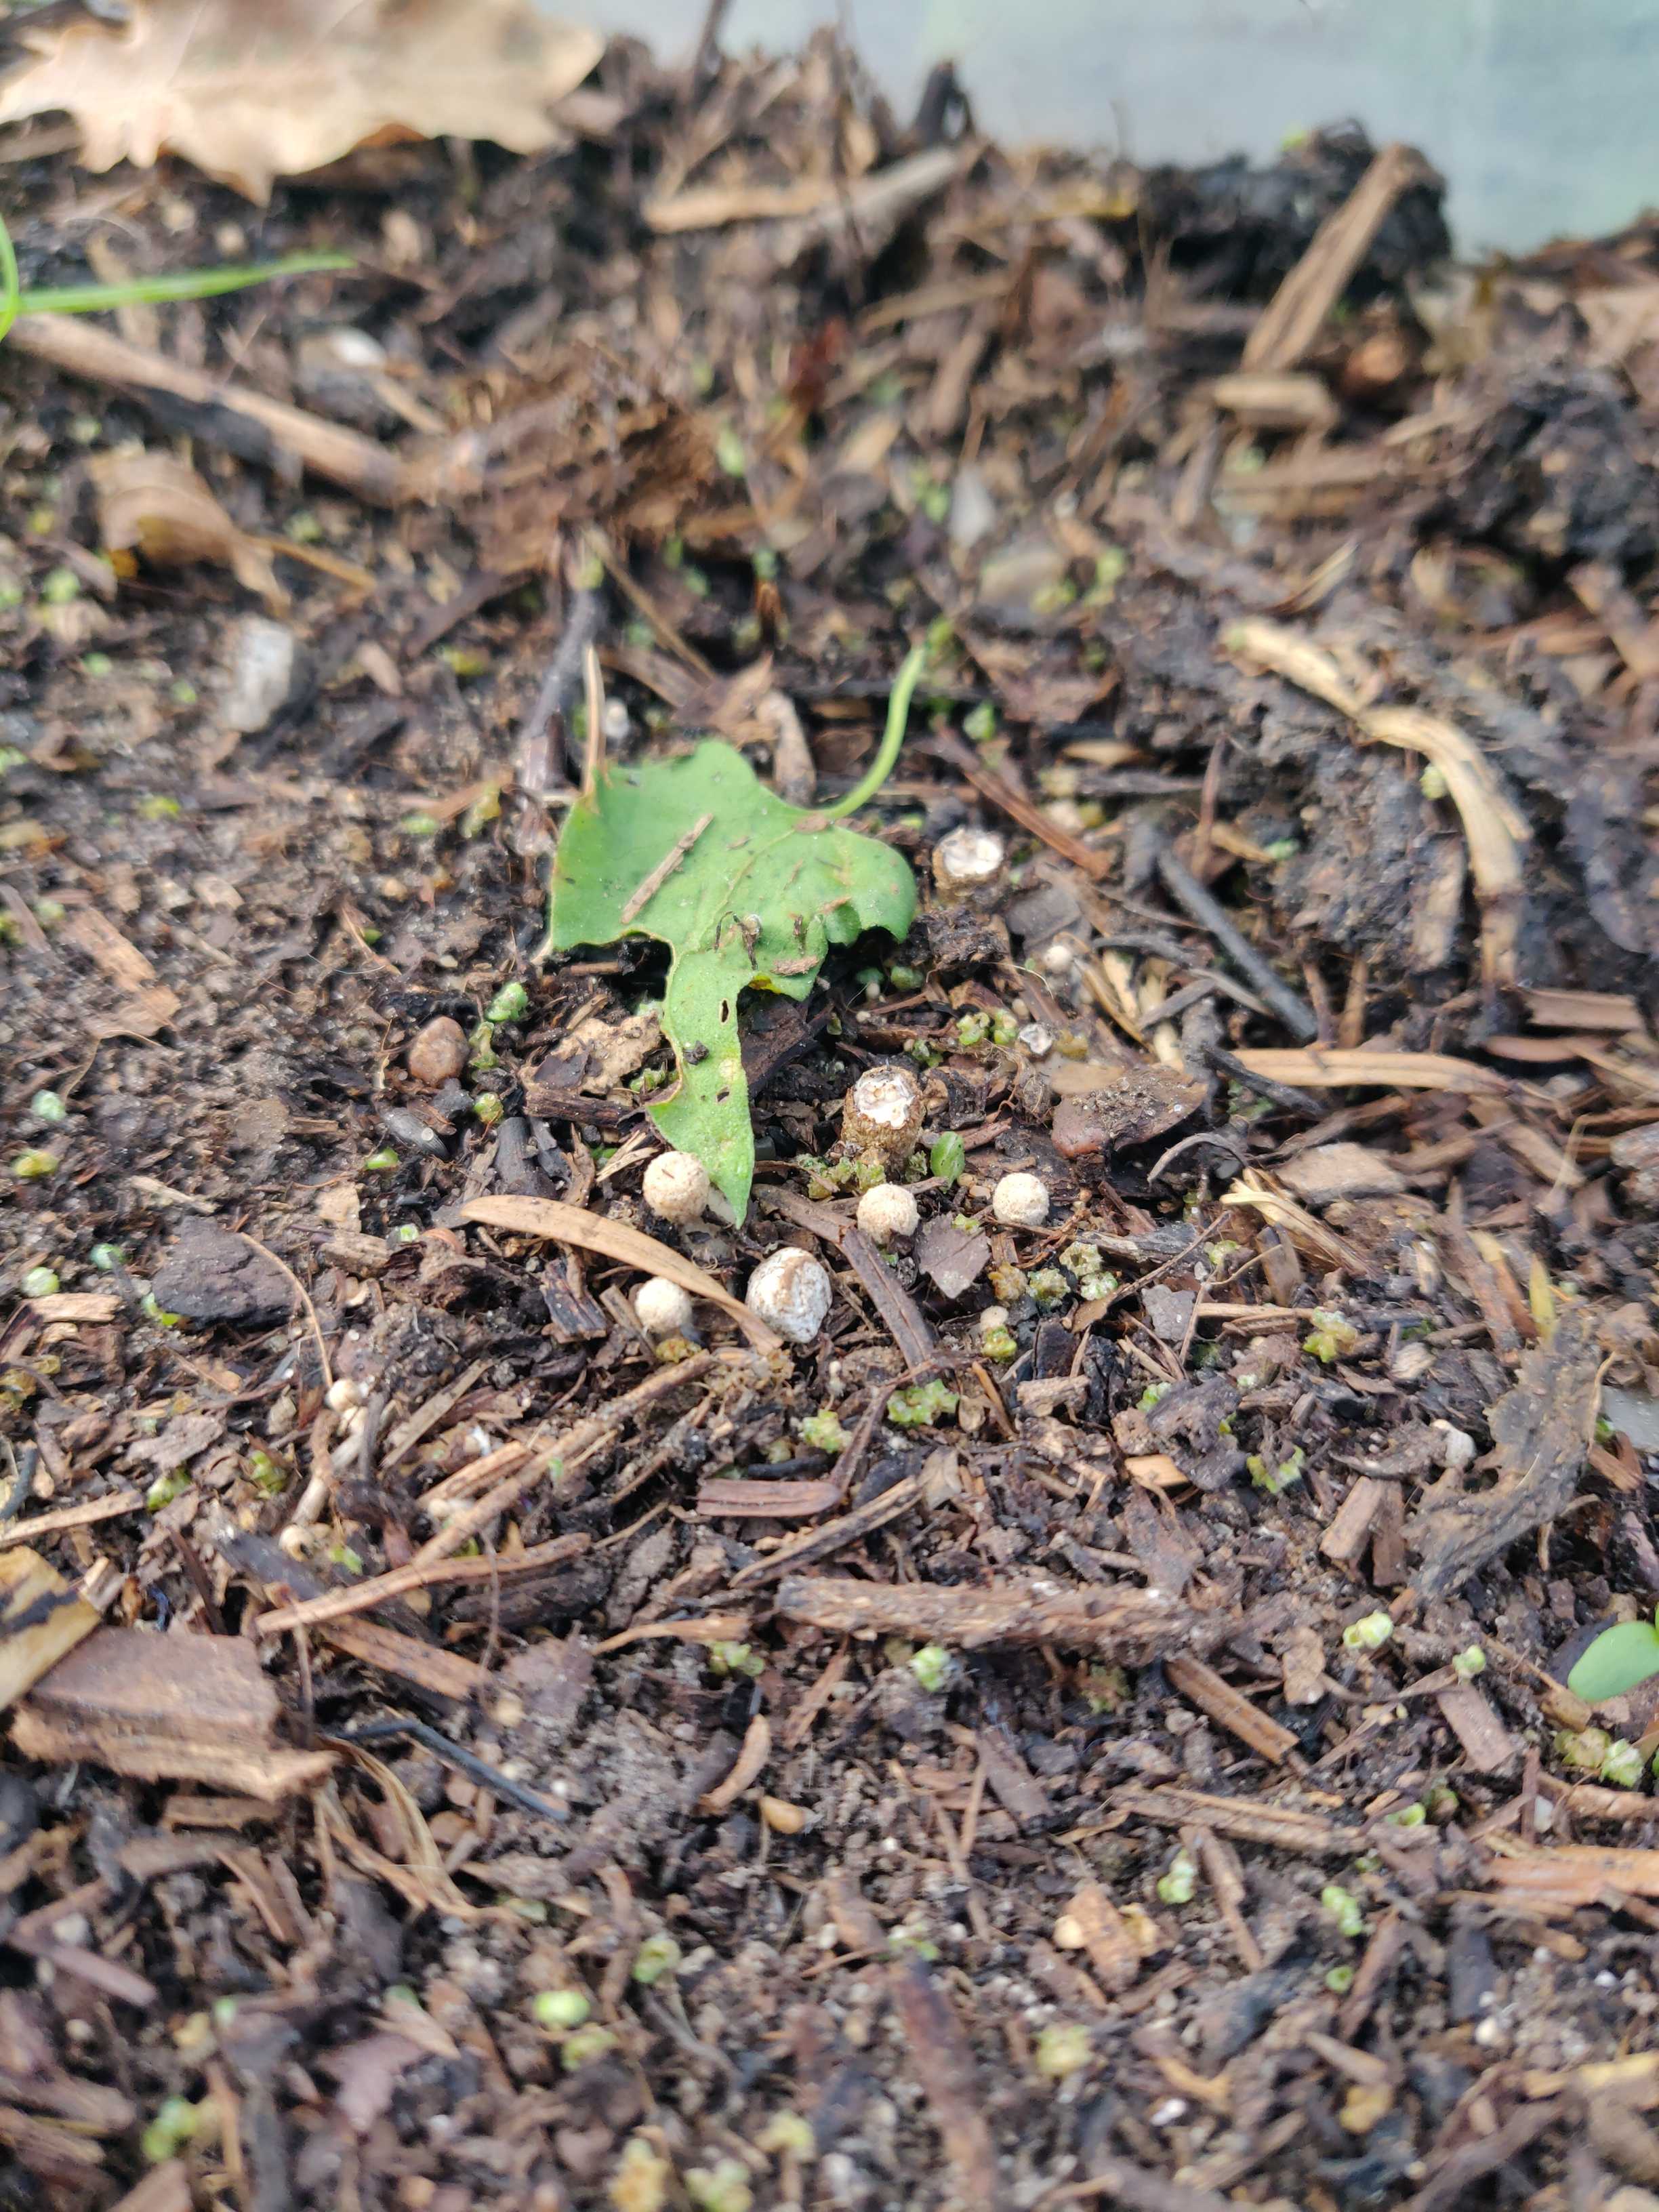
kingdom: Fungi
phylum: Basidiomycota
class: Agaricomycetes
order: Agaricales
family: Nidulariaceae
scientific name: Nidulariaceae
